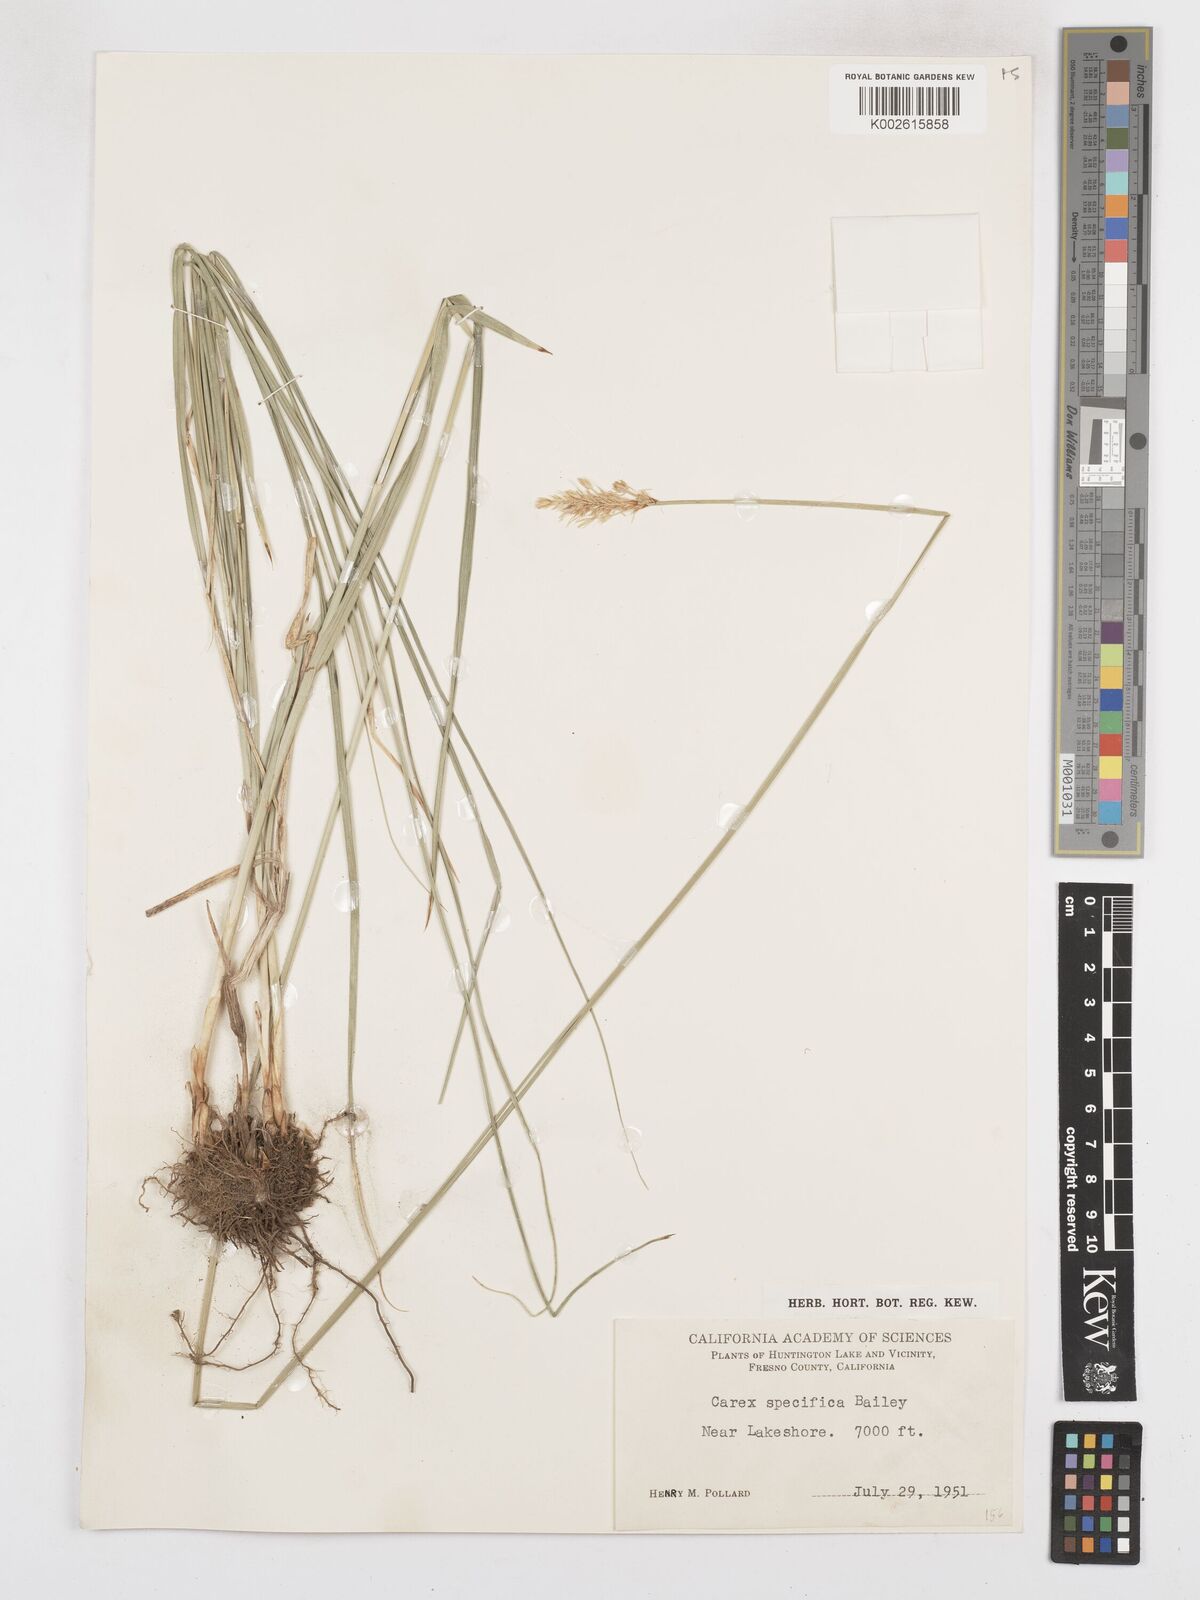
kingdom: Plantae
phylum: Tracheophyta
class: Liliopsida
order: Poales
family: Cyperaceae
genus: Carex
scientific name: Carex specifica
